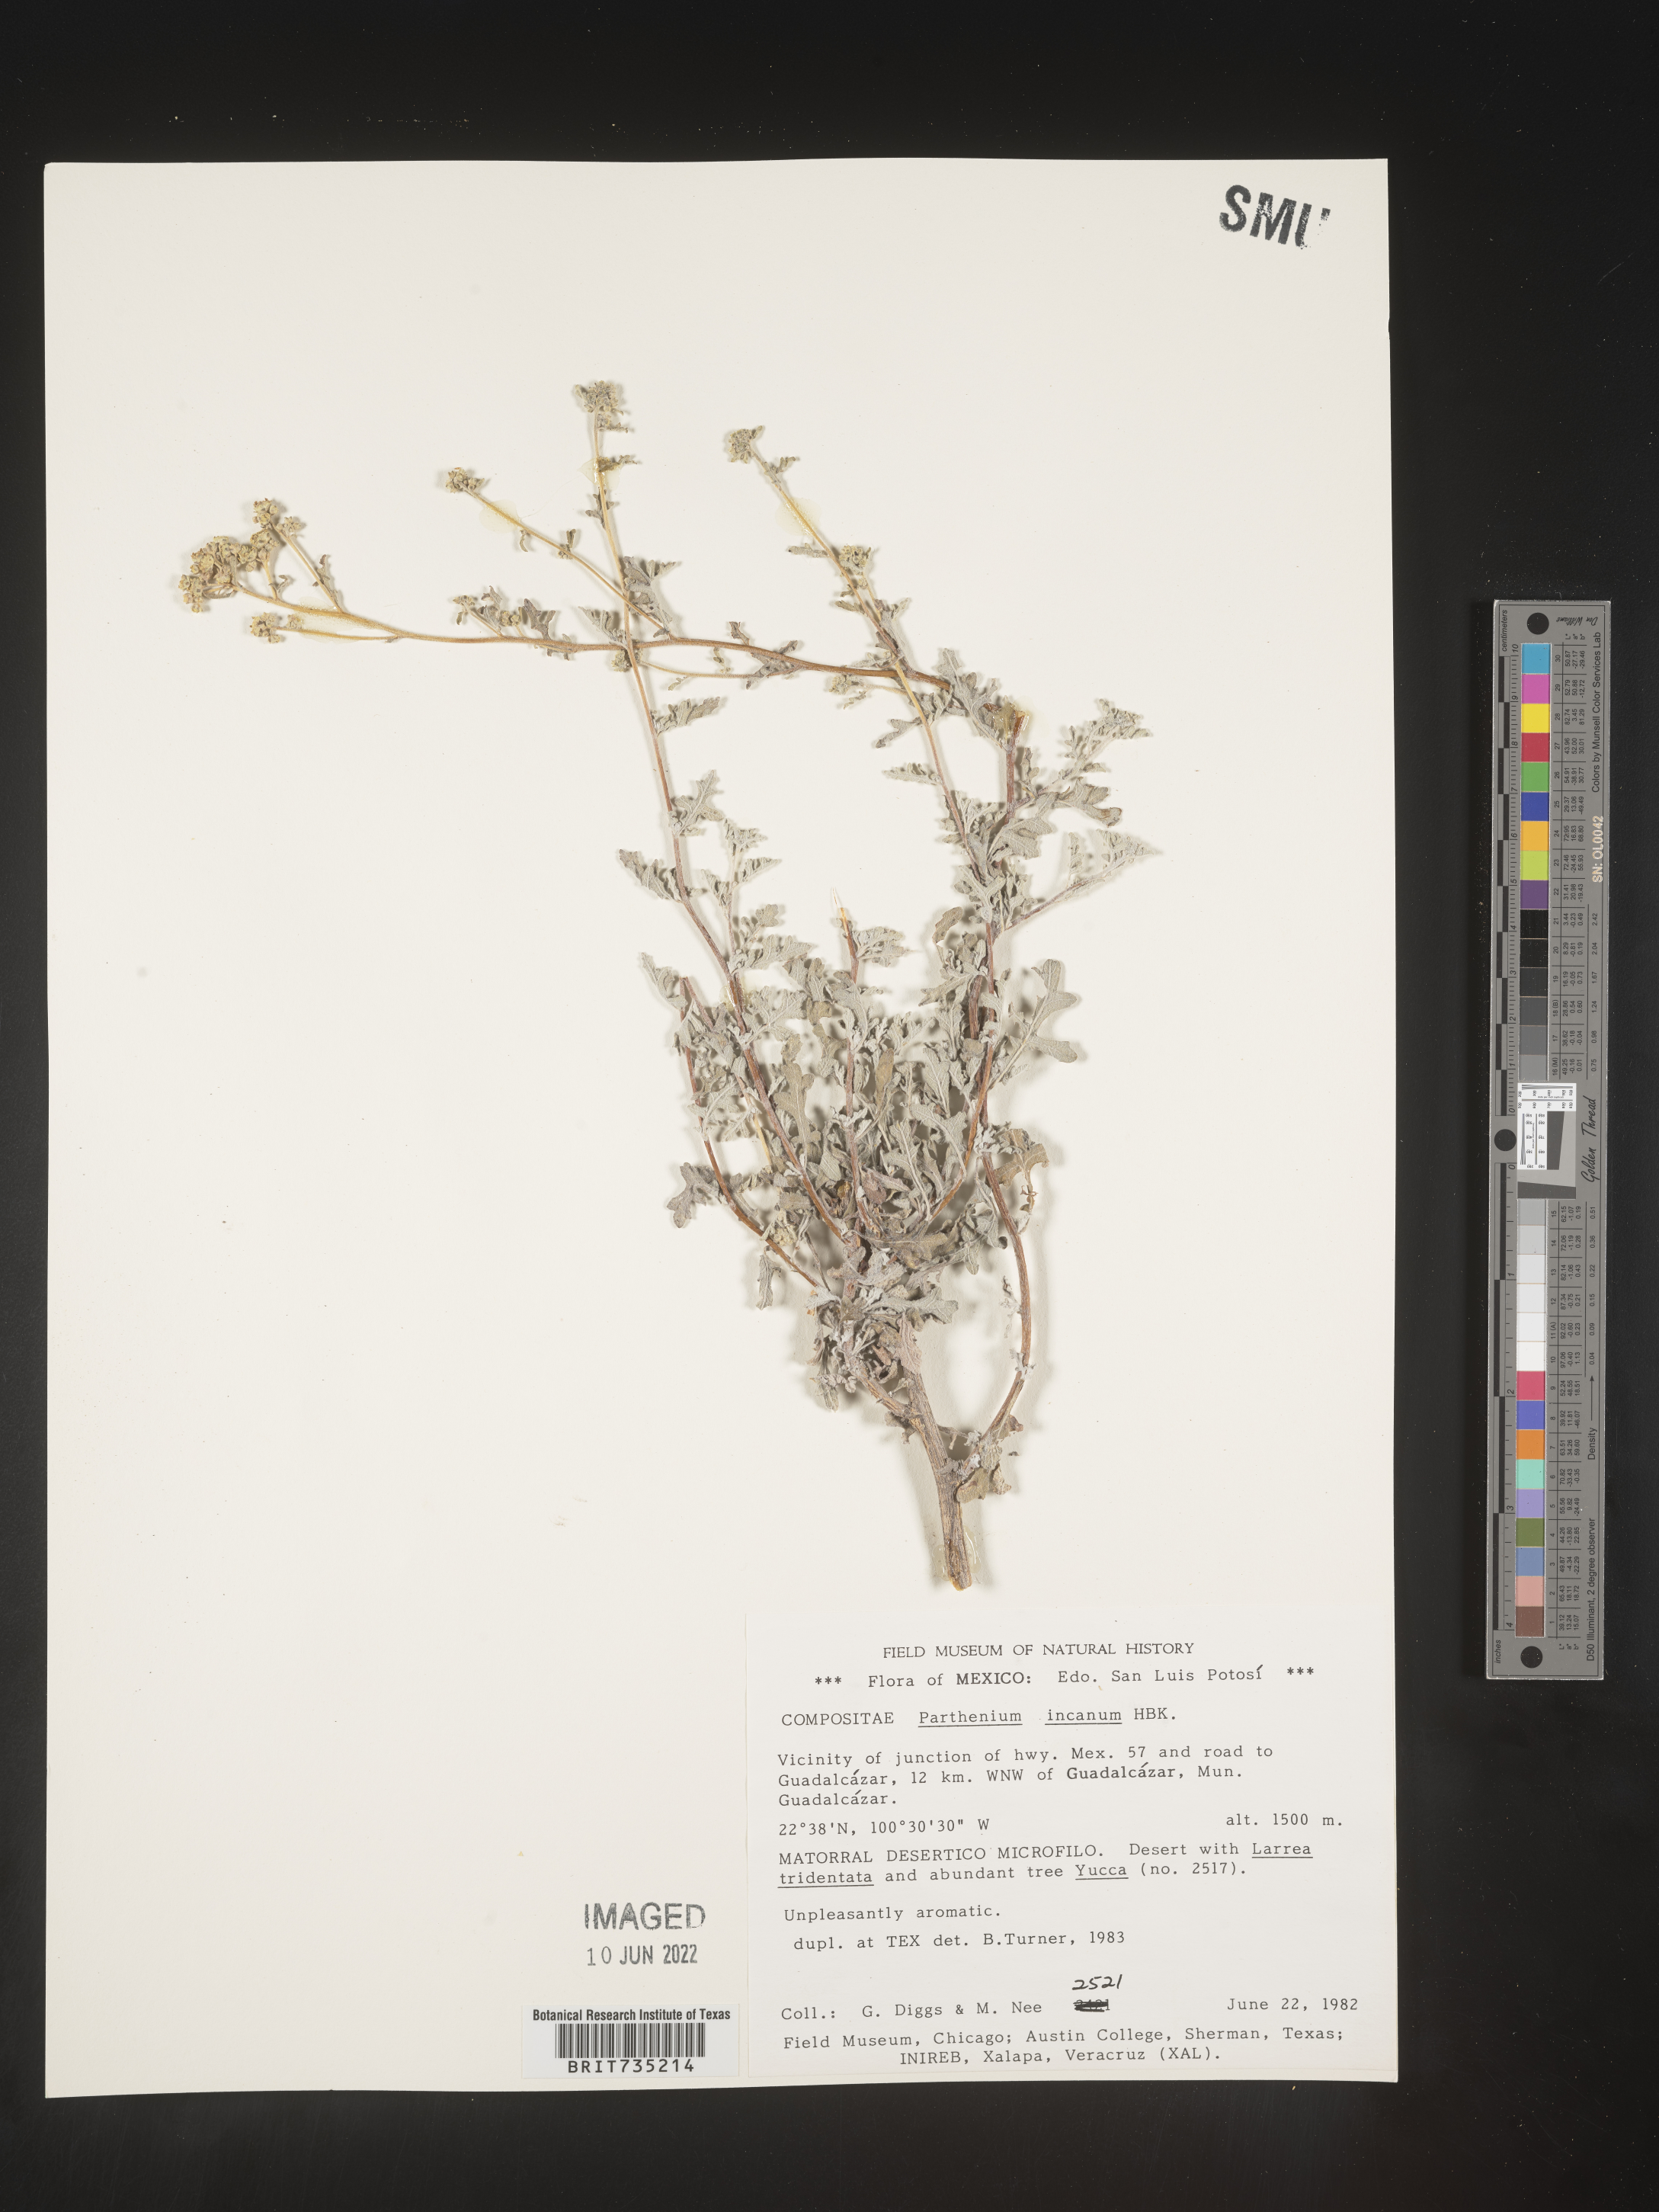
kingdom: Plantae
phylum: Tracheophyta
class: Magnoliopsida
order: Asterales
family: Asteraceae
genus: Parthenium
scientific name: Parthenium
